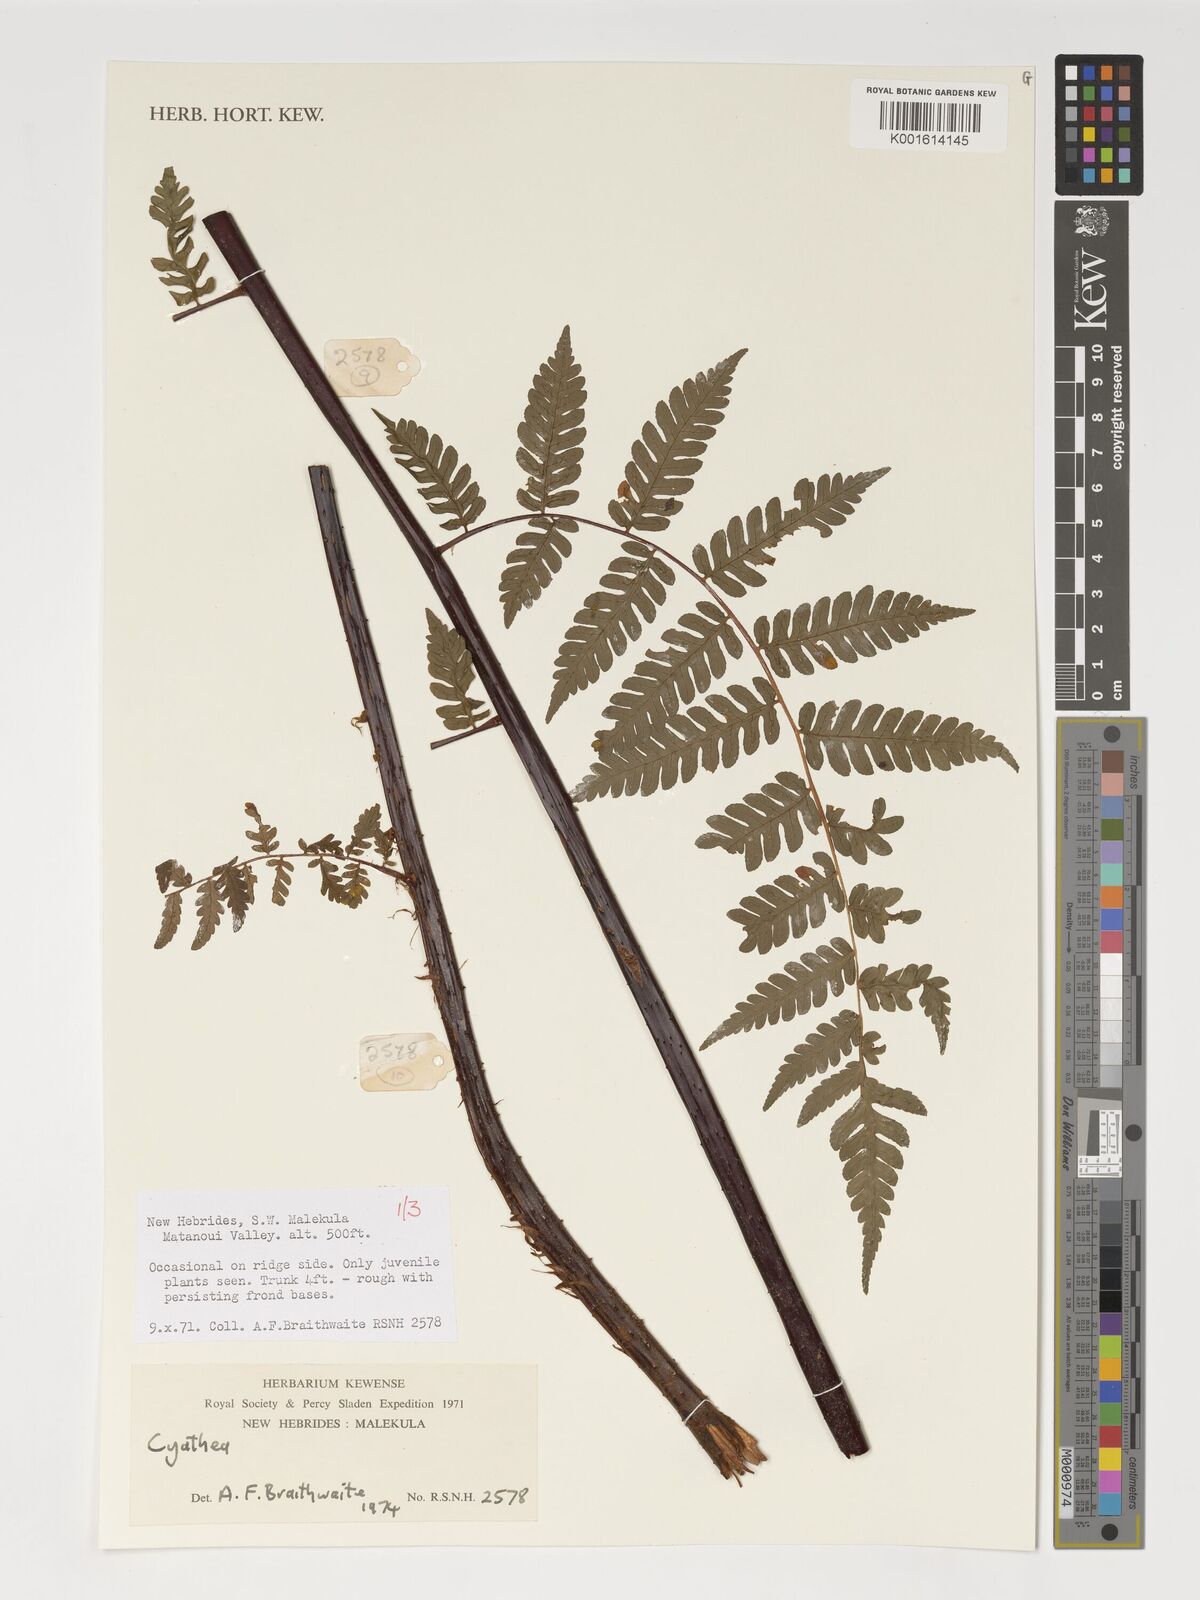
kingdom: Plantae
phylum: Tracheophyta
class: Polypodiopsida
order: Cyatheales
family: Cyatheaceae
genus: Cyathea
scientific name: Cyathea
